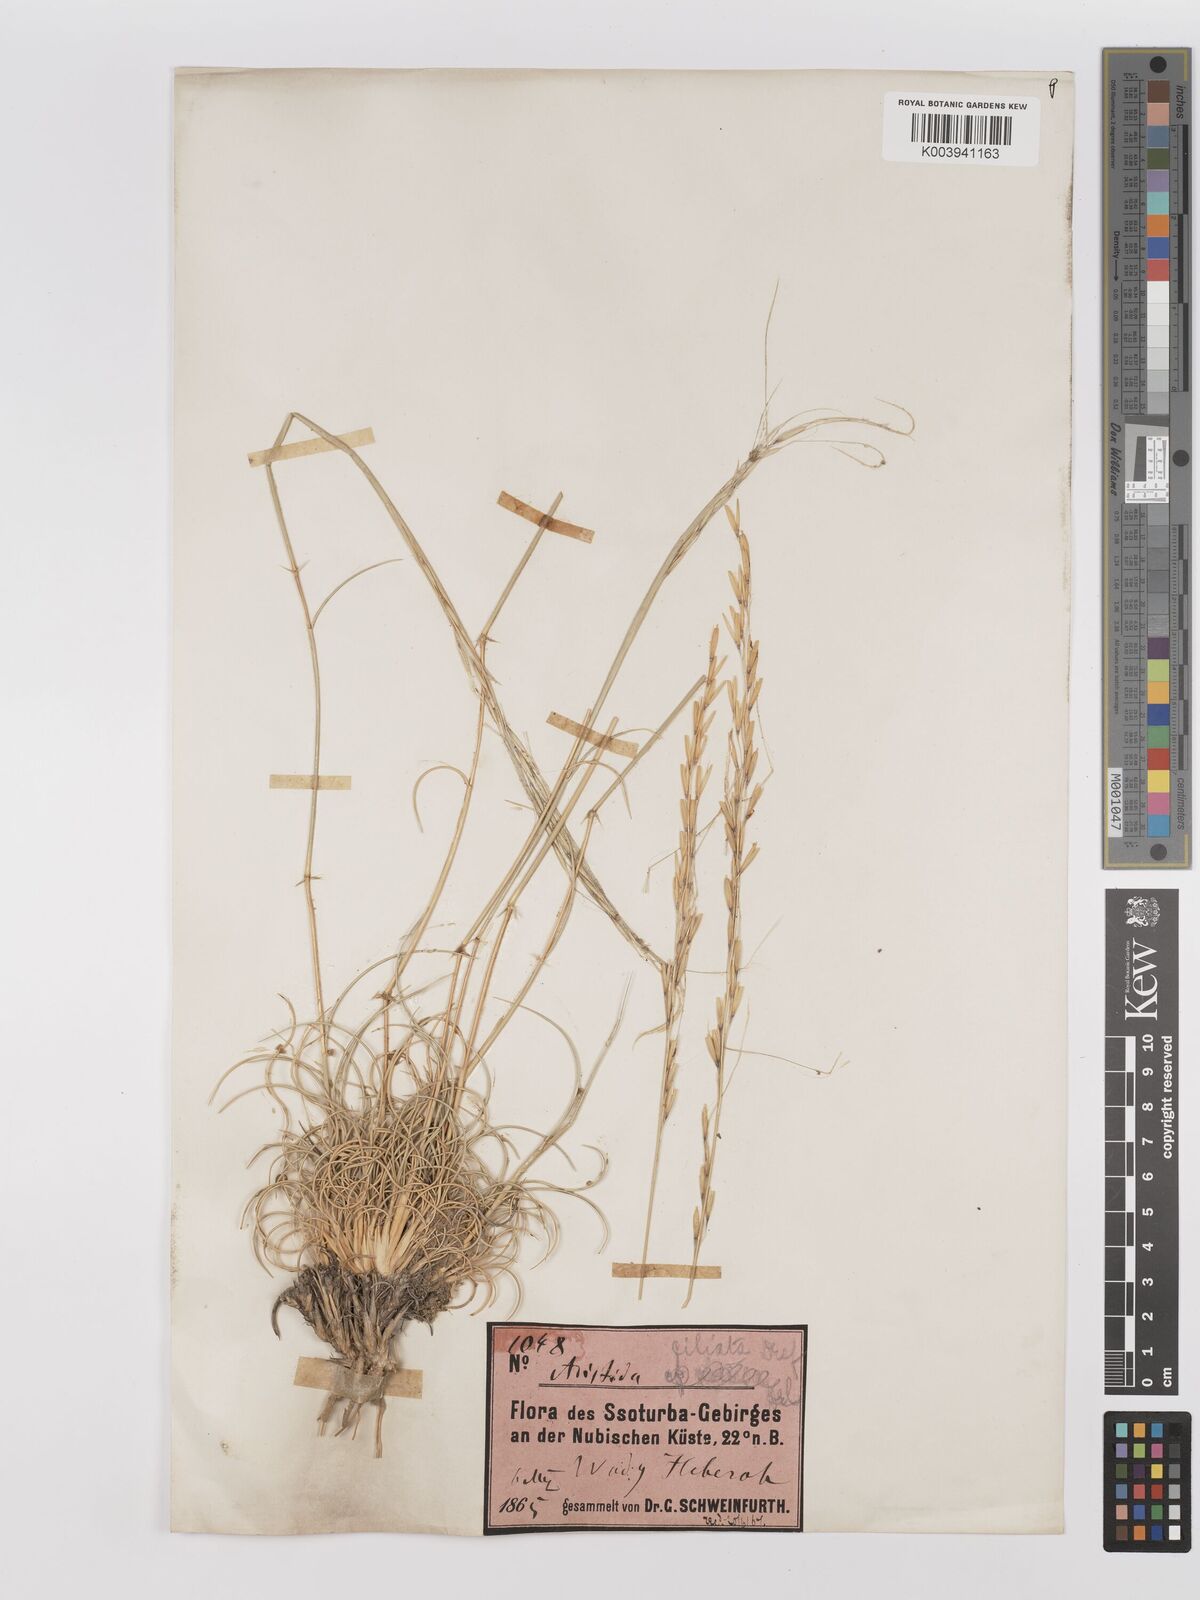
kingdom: Plantae
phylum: Tracheophyta
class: Liliopsida
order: Poales
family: Poaceae
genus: Stipagrostis
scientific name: Stipagrostis ciliata
